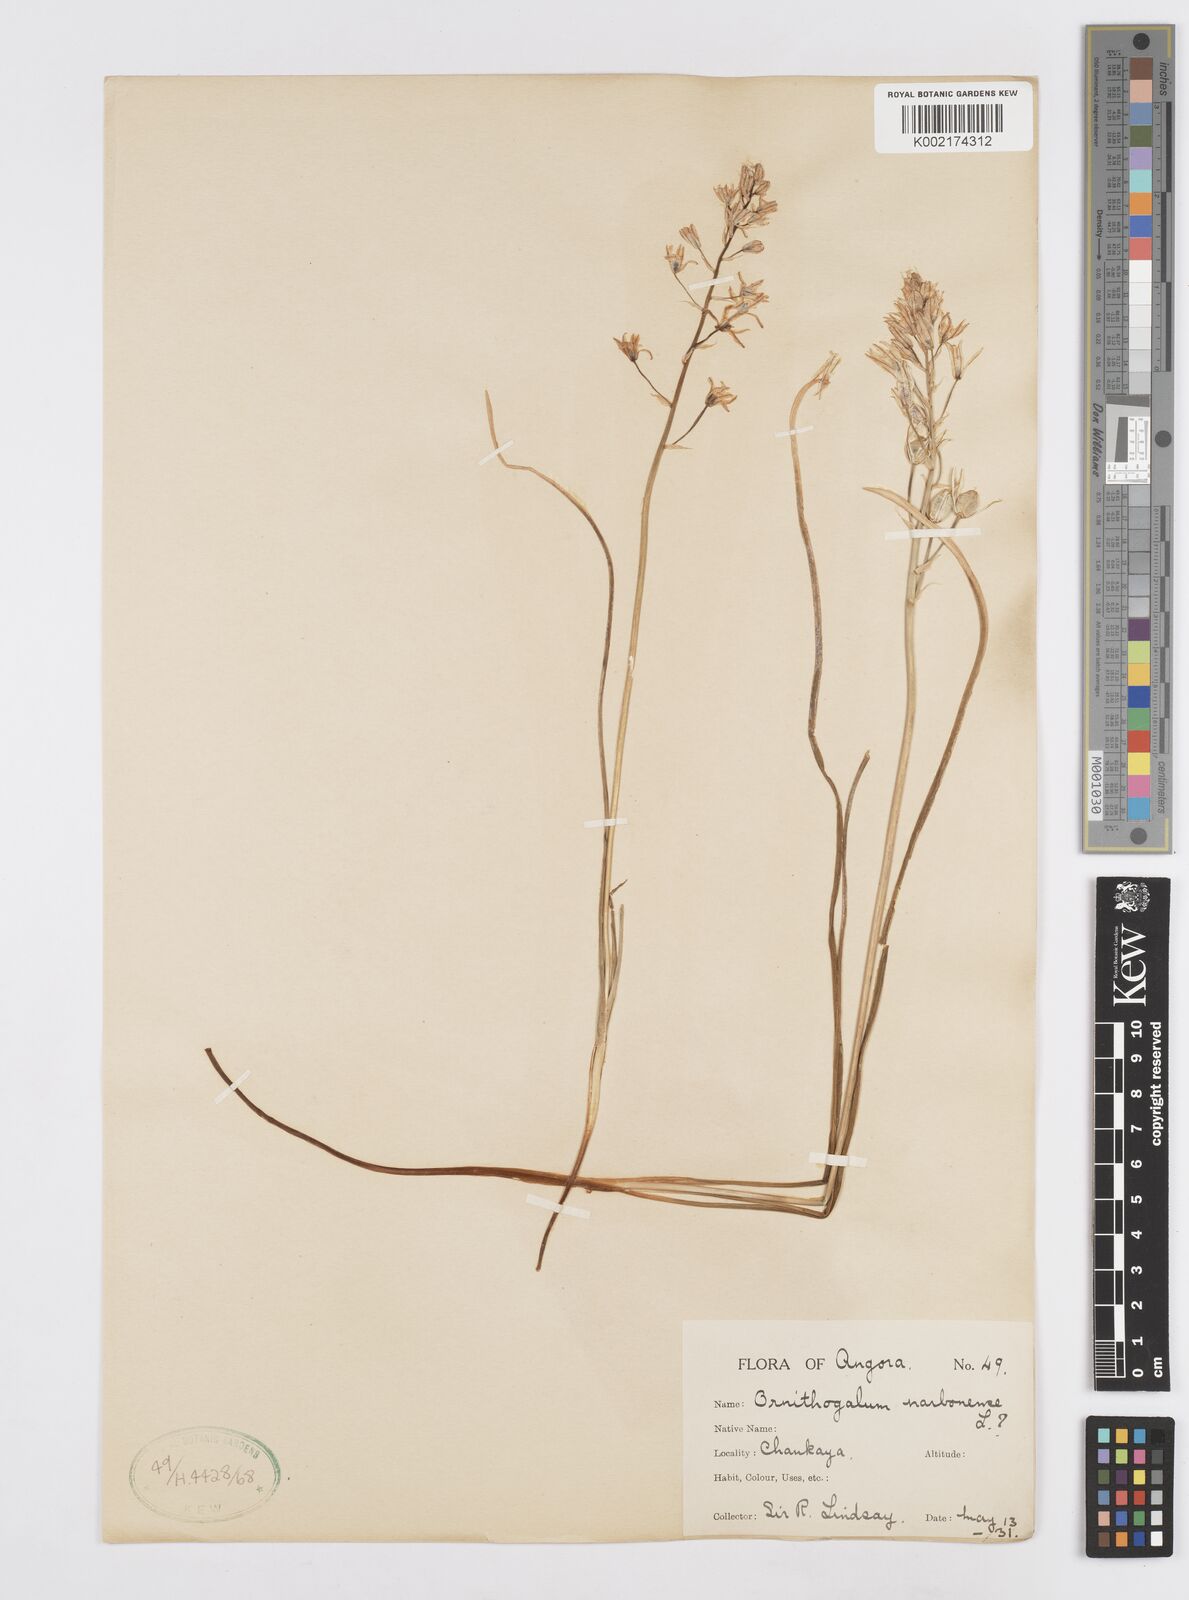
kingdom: Plantae
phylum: Tracheophyta
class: Liliopsida
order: Asparagales
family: Asparagaceae
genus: Ornithogalum
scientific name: Ornithogalum narbonense
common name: Bath-asparagus
